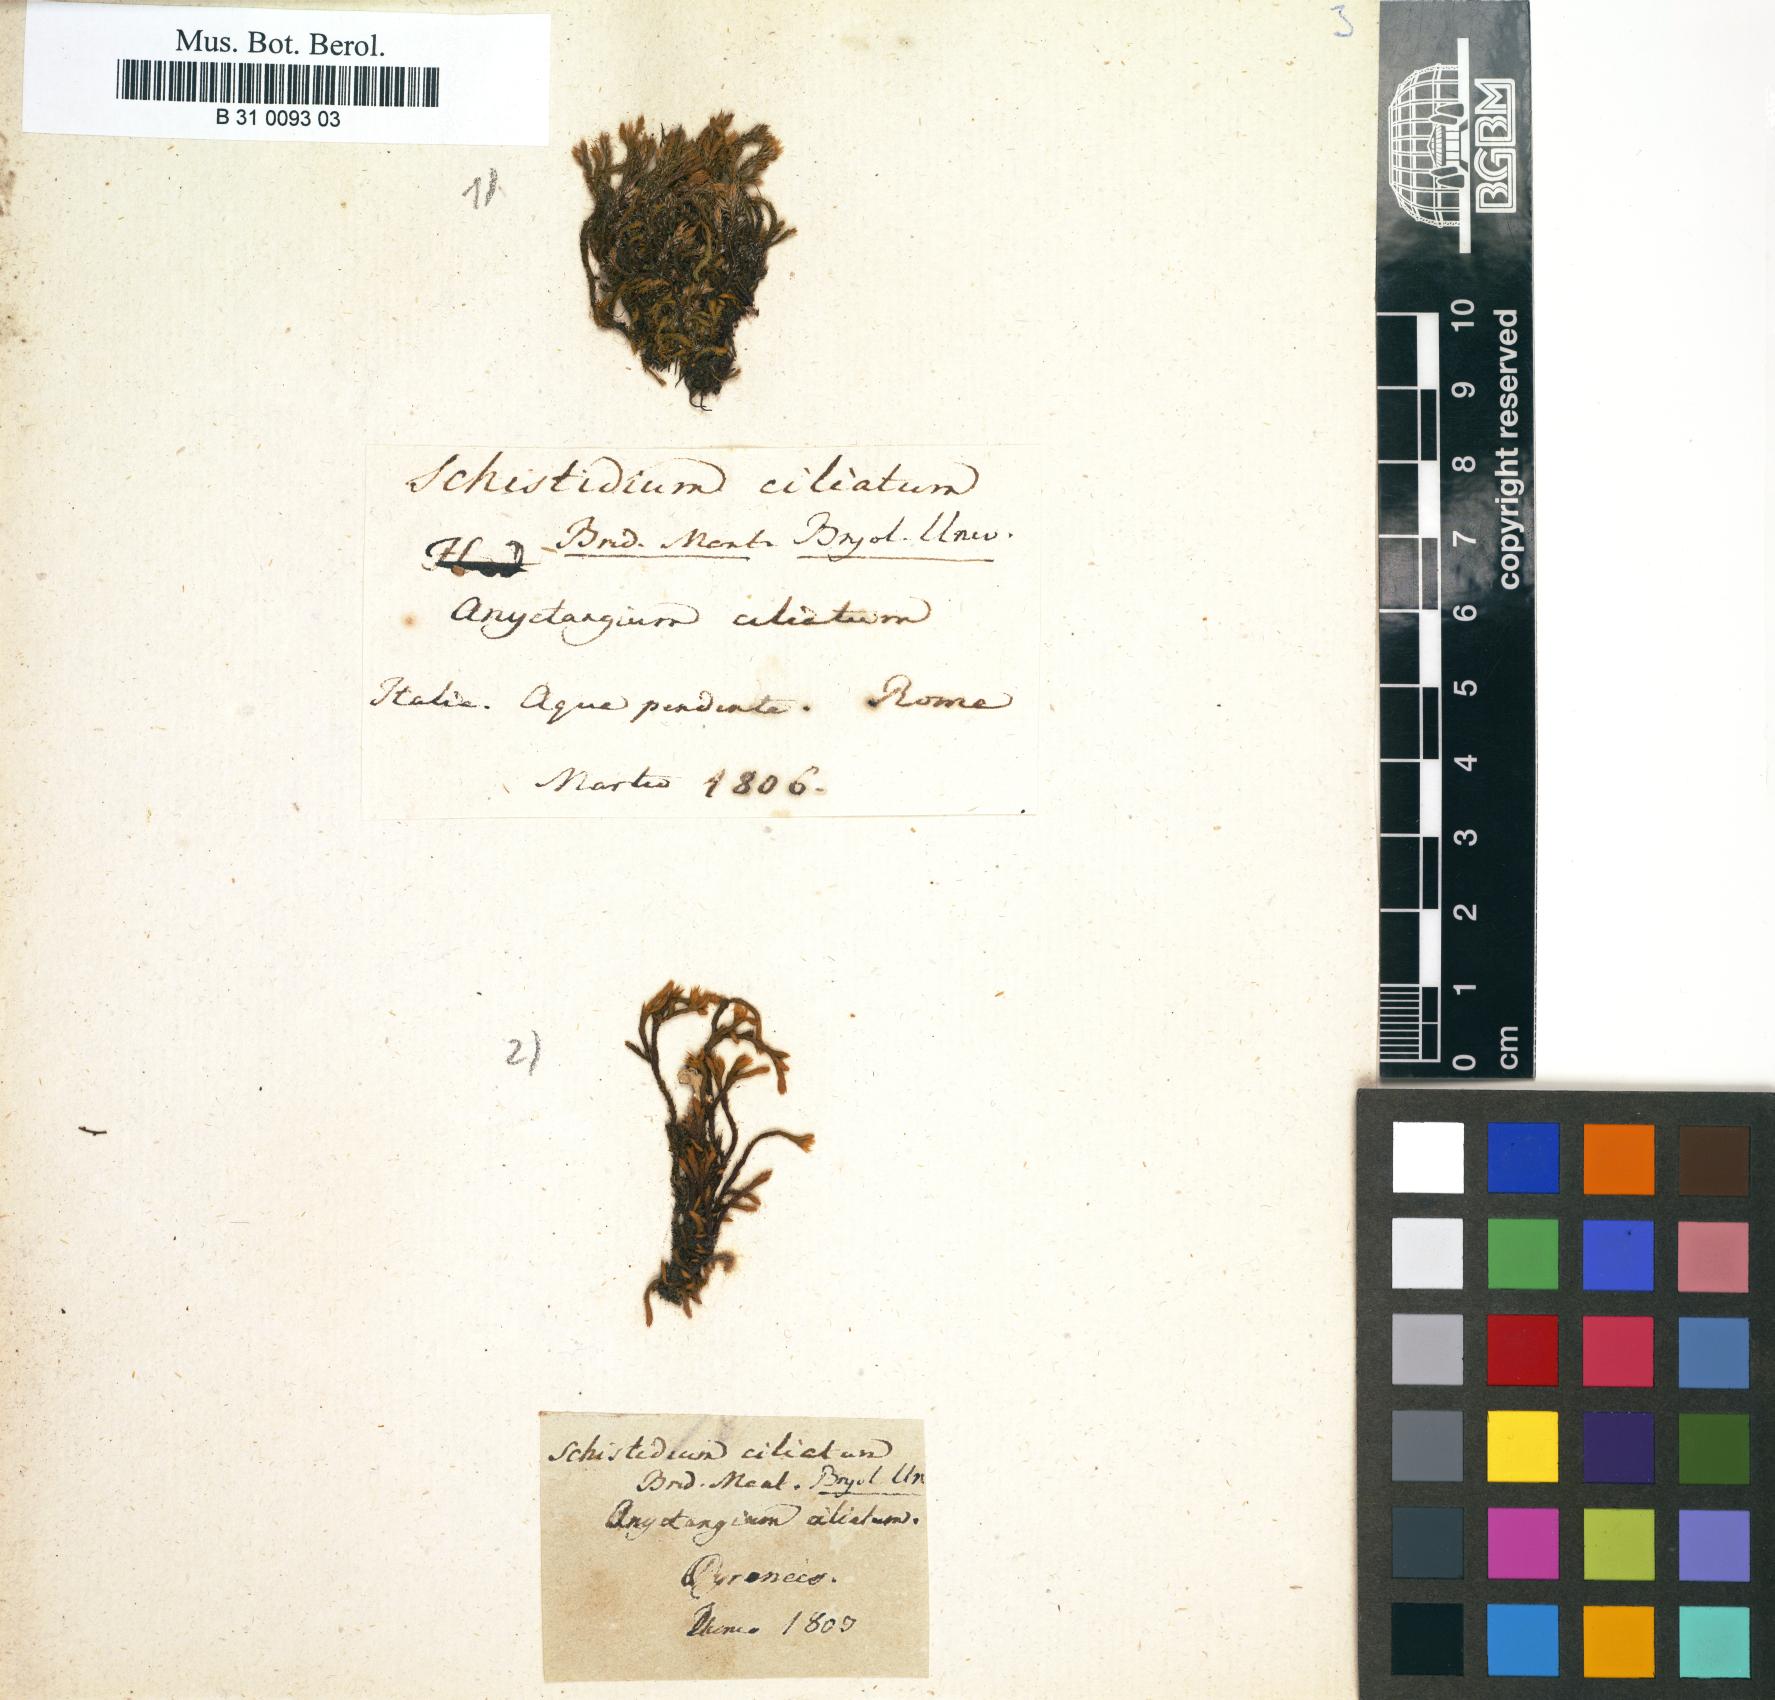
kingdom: Plantae
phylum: Bryophyta
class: Bryopsida
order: Hedwigiales
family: Hedwigiaceae
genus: Hedwigia
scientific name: Hedwigia ciliata
